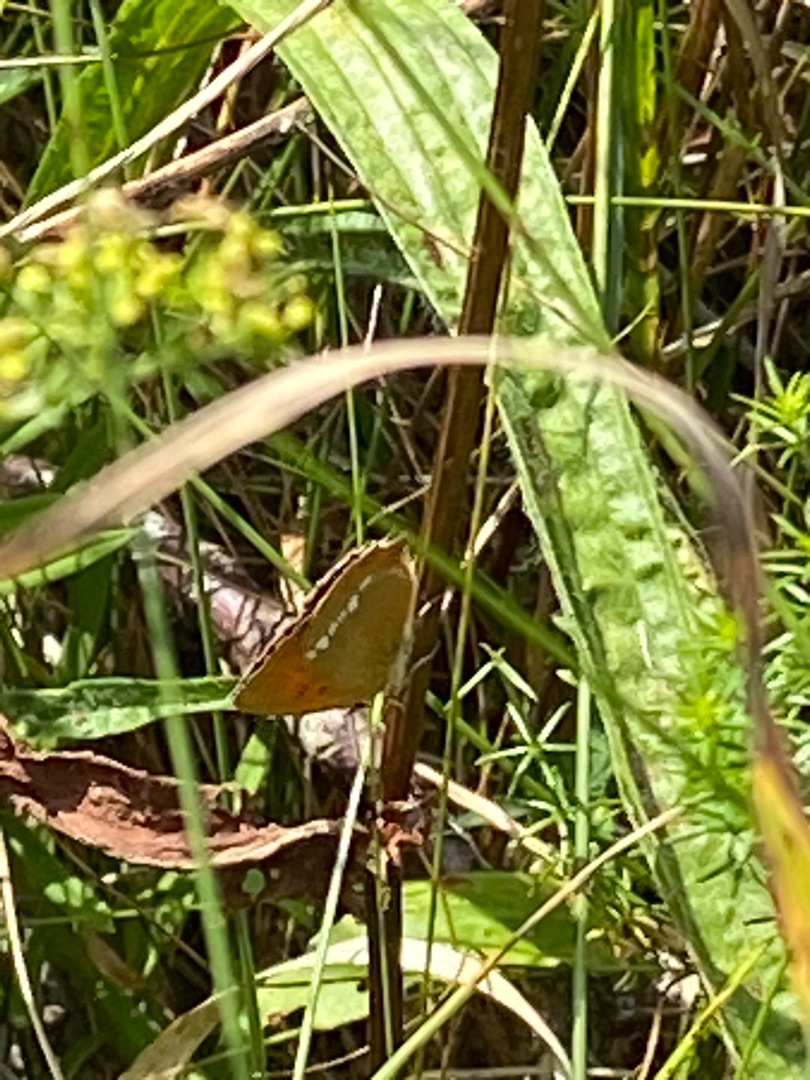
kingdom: Animalia
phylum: Arthropoda
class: Insecta
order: Lepidoptera
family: Lycaenidae
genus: Lycaena
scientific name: Lycaena virgaureae
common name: Dukatsommerfugl
